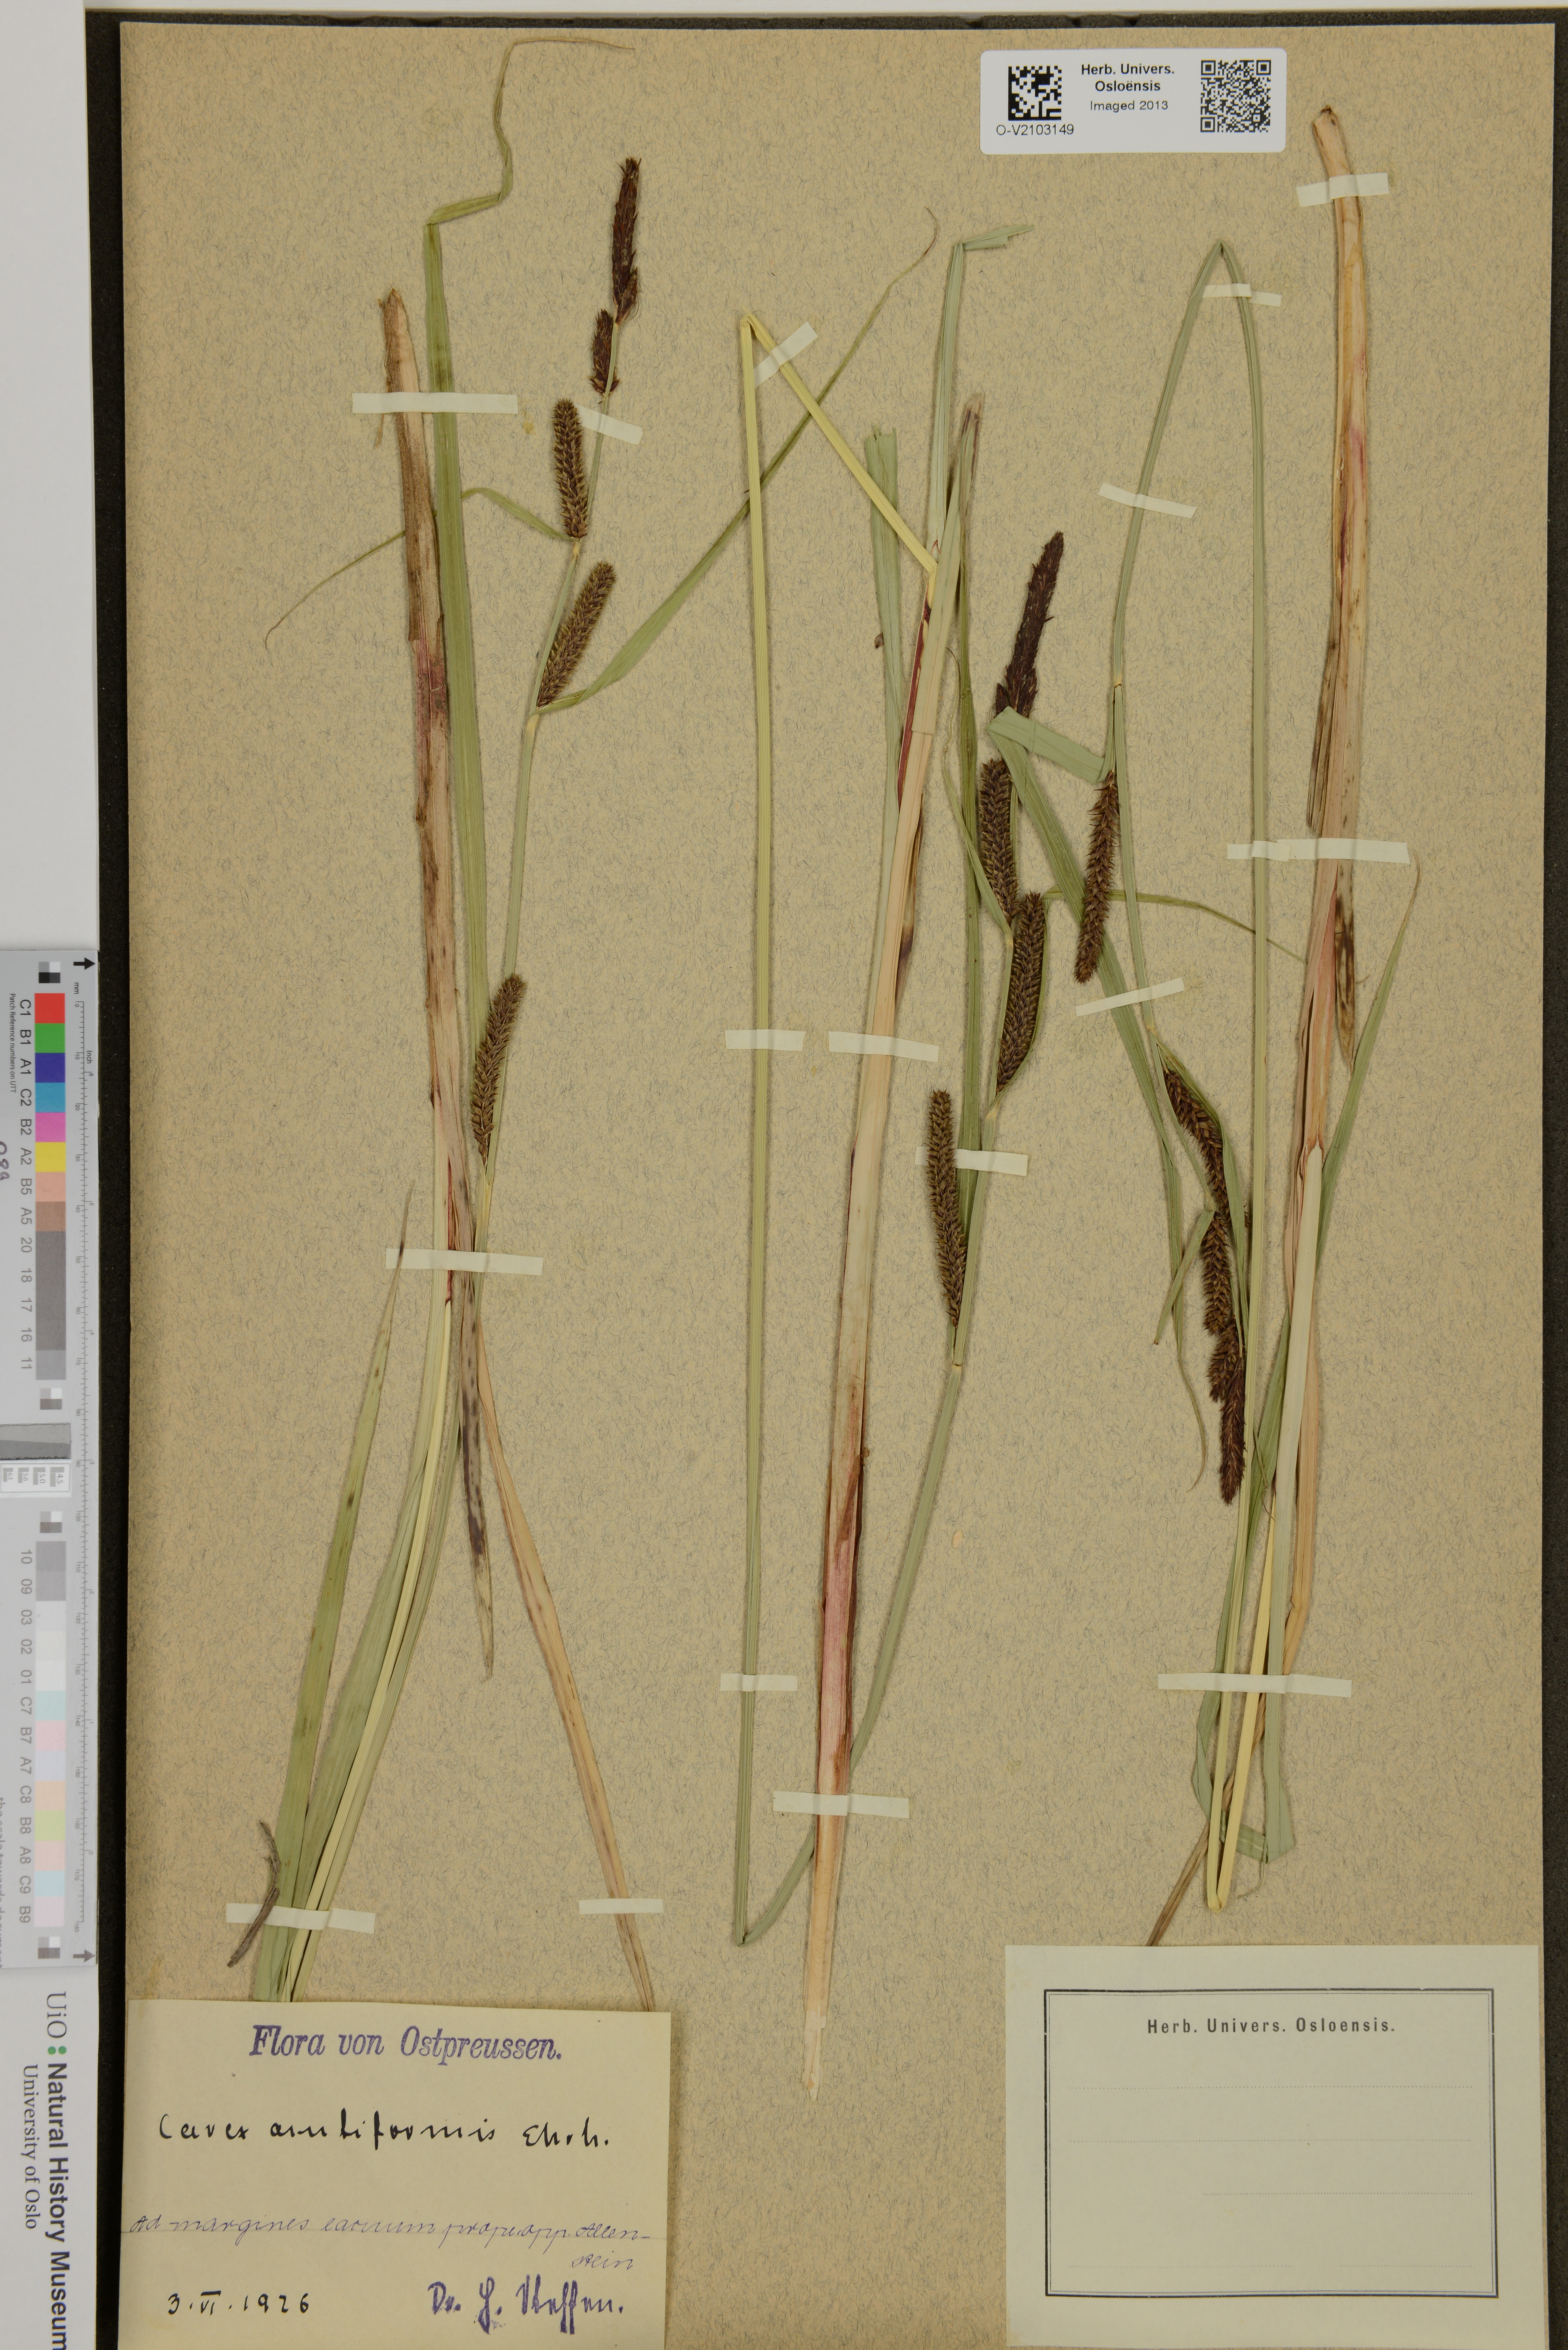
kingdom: Plantae
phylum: Tracheophyta
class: Liliopsida
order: Poales
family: Cyperaceae
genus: Carex
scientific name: Carex acutiformis
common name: Lesser pond-sedge
